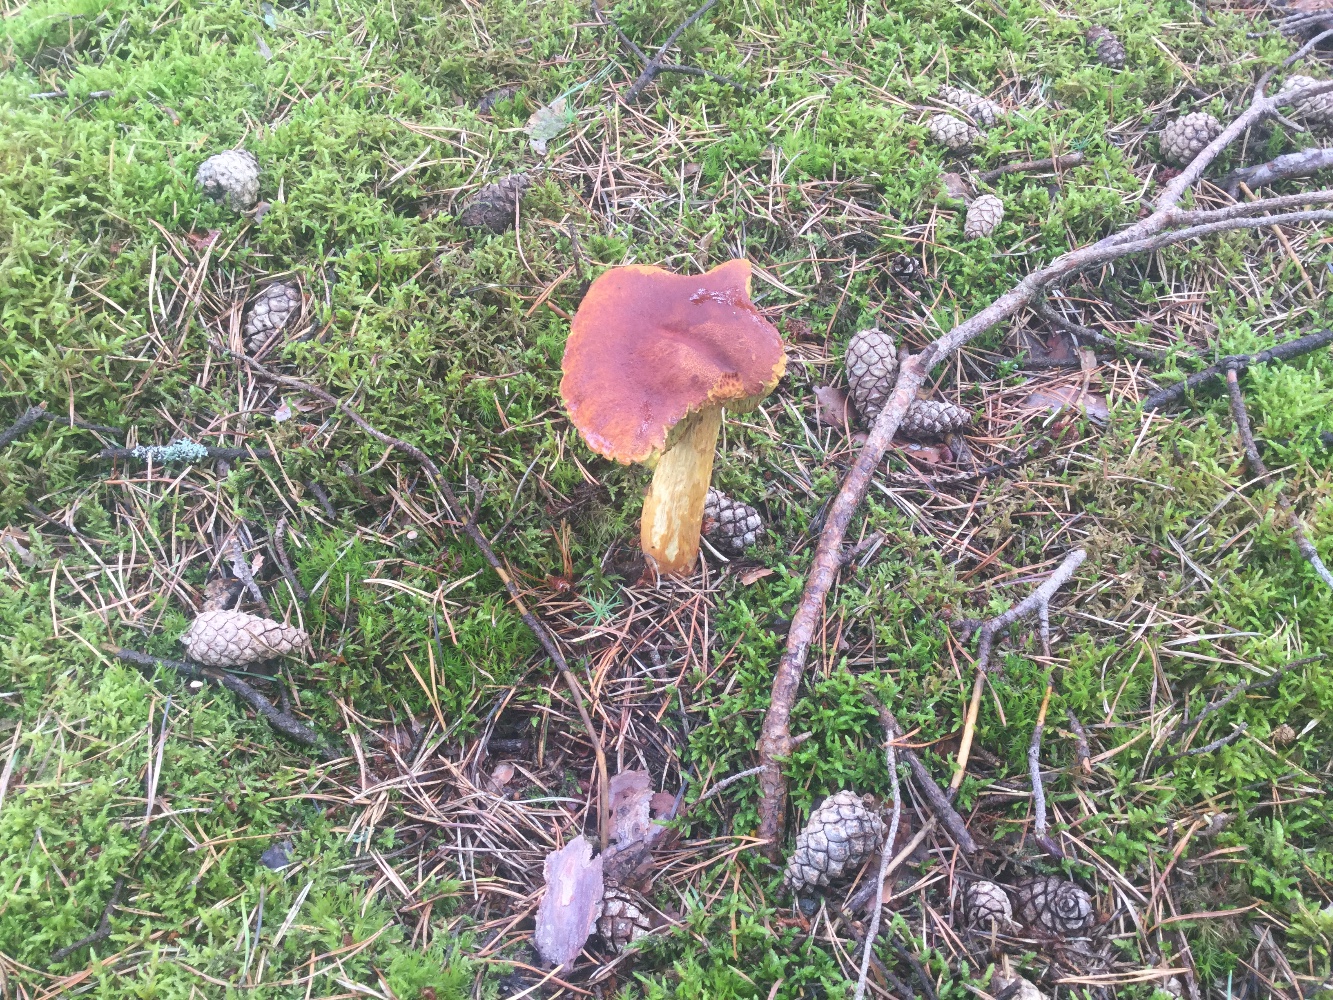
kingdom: Fungi
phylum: Basidiomycota
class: Agaricomycetes
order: Boletales
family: Boletaceae
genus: Aureoboletus
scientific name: Aureoboletus projectellus
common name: ribbestokket rørhat
